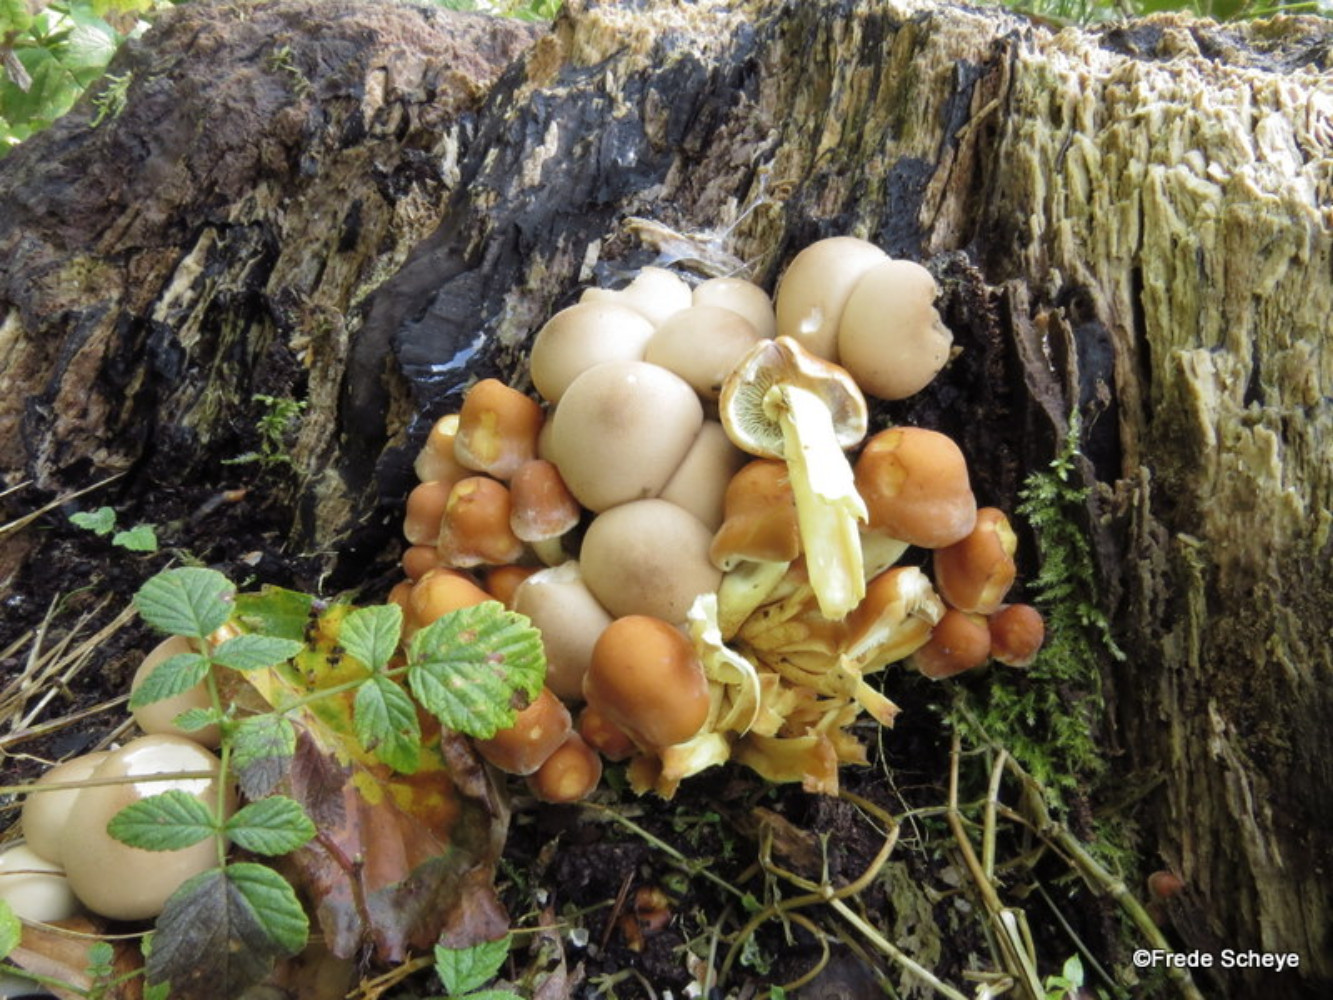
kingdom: Fungi
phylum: Basidiomycota
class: Agaricomycetes
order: Agaricales
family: Lycoperdaceae
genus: Apioperdon
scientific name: Apioperdon pyriforme
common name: pære-støvbold
